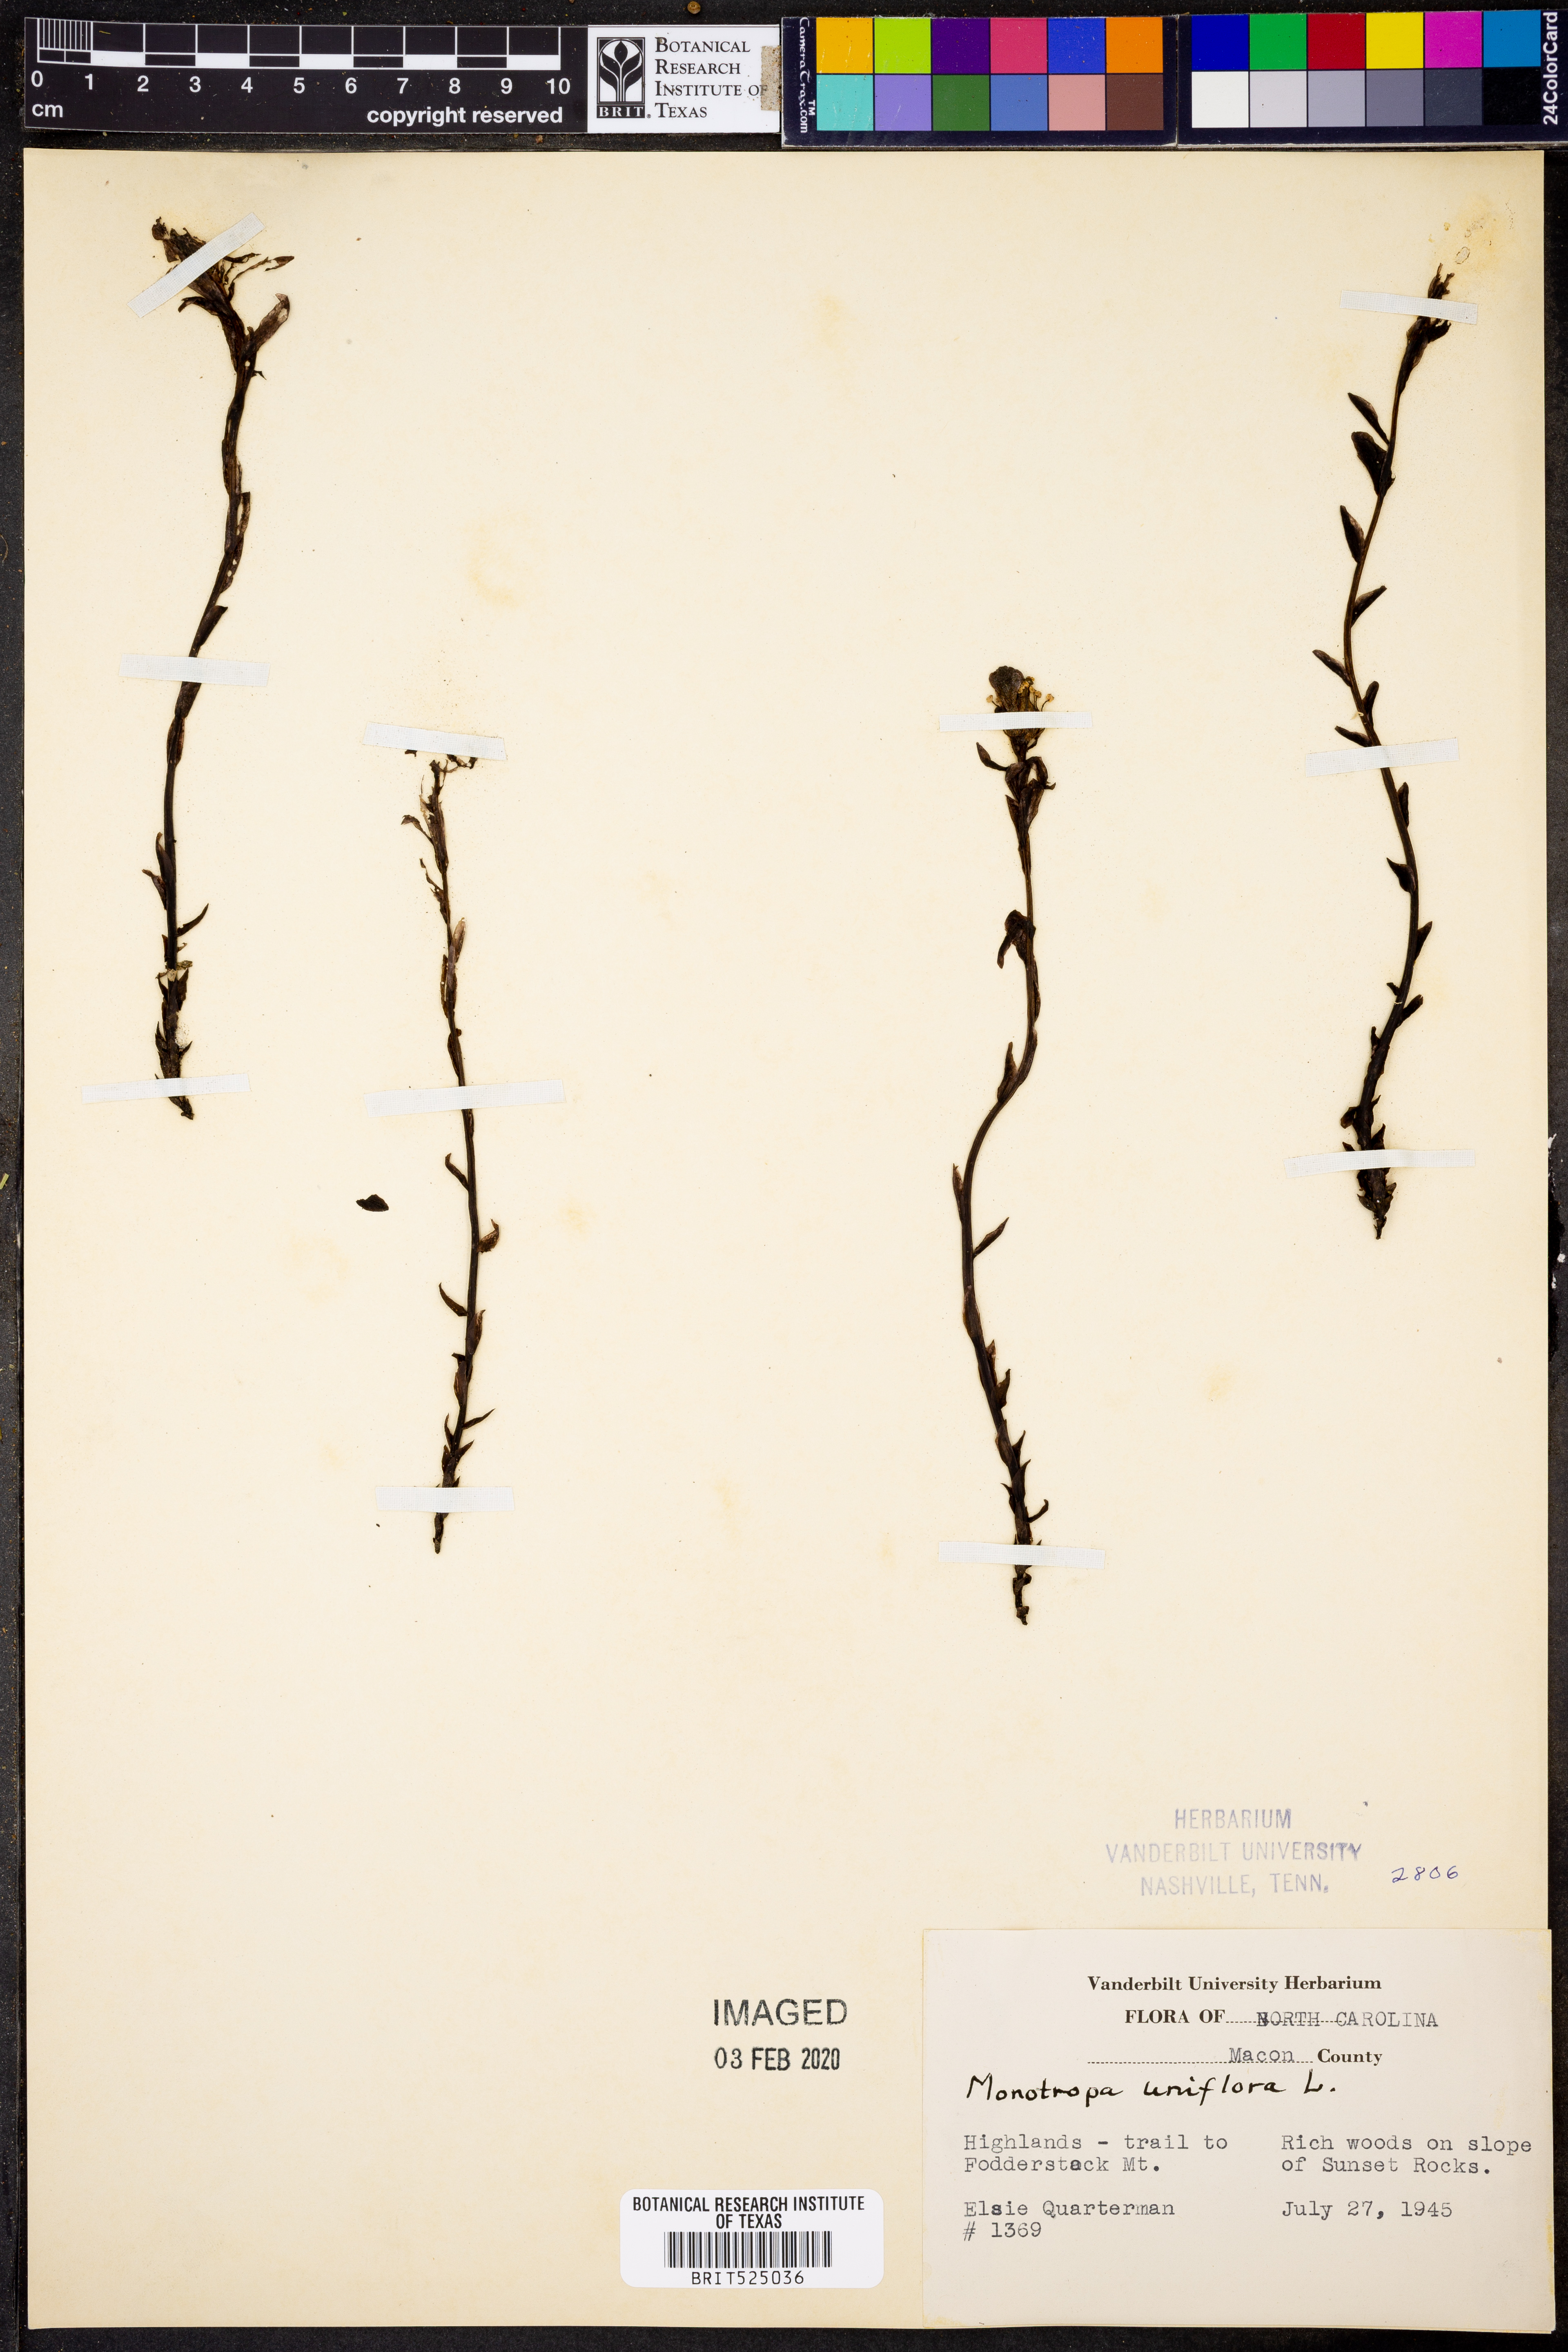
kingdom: Plantae
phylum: Tracheophyta
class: Magnoliopsida
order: Ericales
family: Ericaceae
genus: Monotropa
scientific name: Monotropa uniflora
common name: Convulsion root
